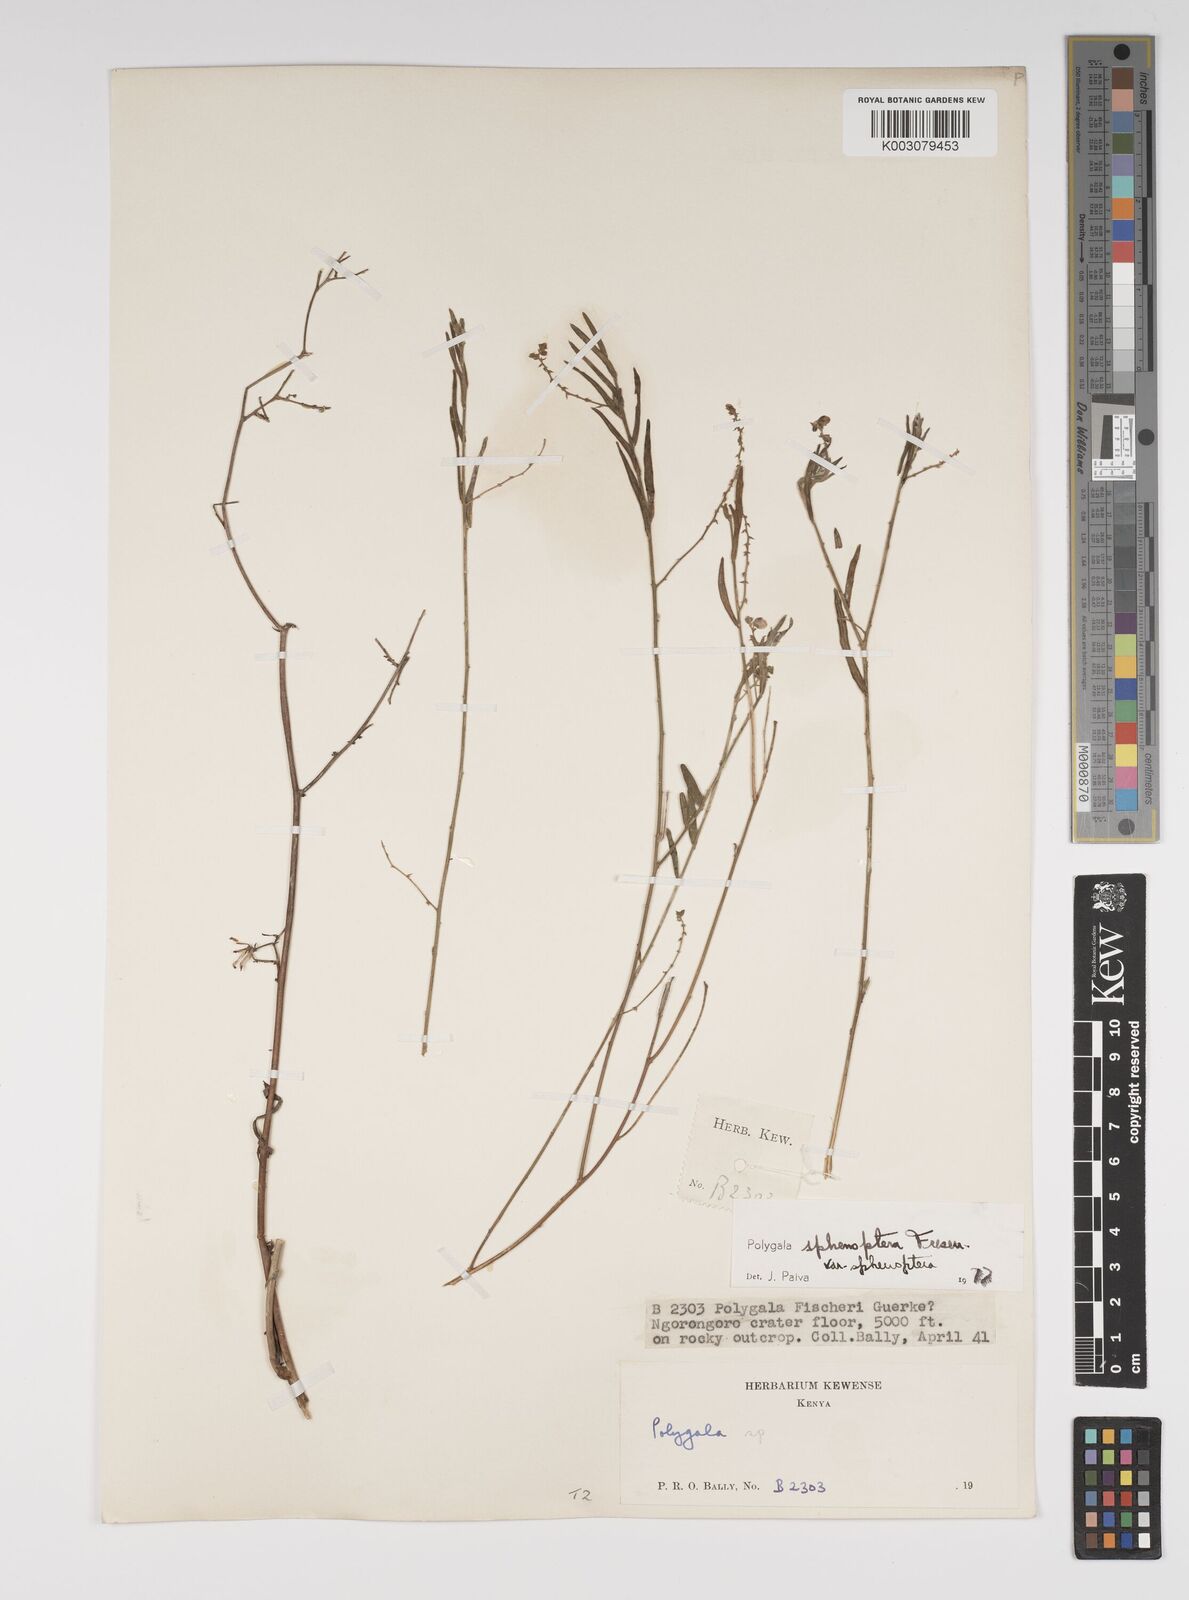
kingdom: Plantae
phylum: Tracheophyta
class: Magnoliopsida
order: Fabales
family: Polygalaceae
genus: Polygala
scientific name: Polygala sphenoptera
